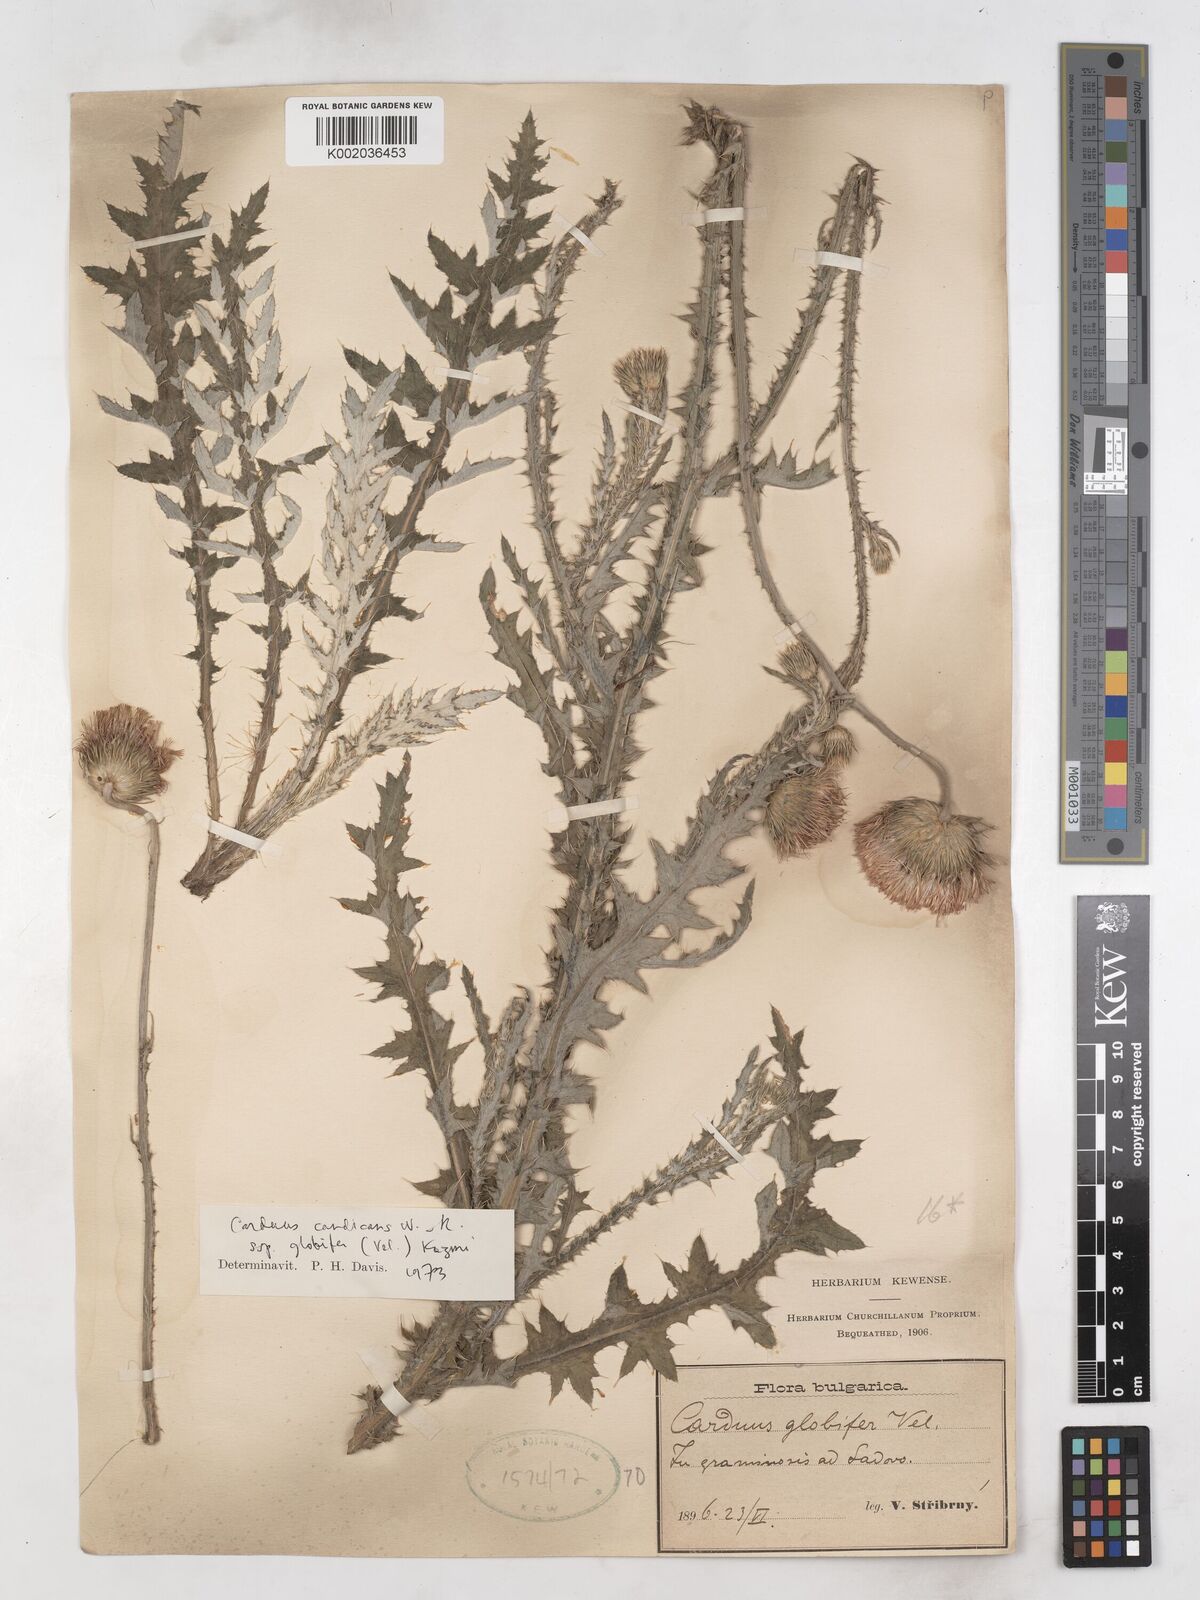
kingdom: Plantae
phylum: Tracheophyta
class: Magnoliopsida
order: Asterales
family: Asteraceae
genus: Carduus
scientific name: Carduus candicans
